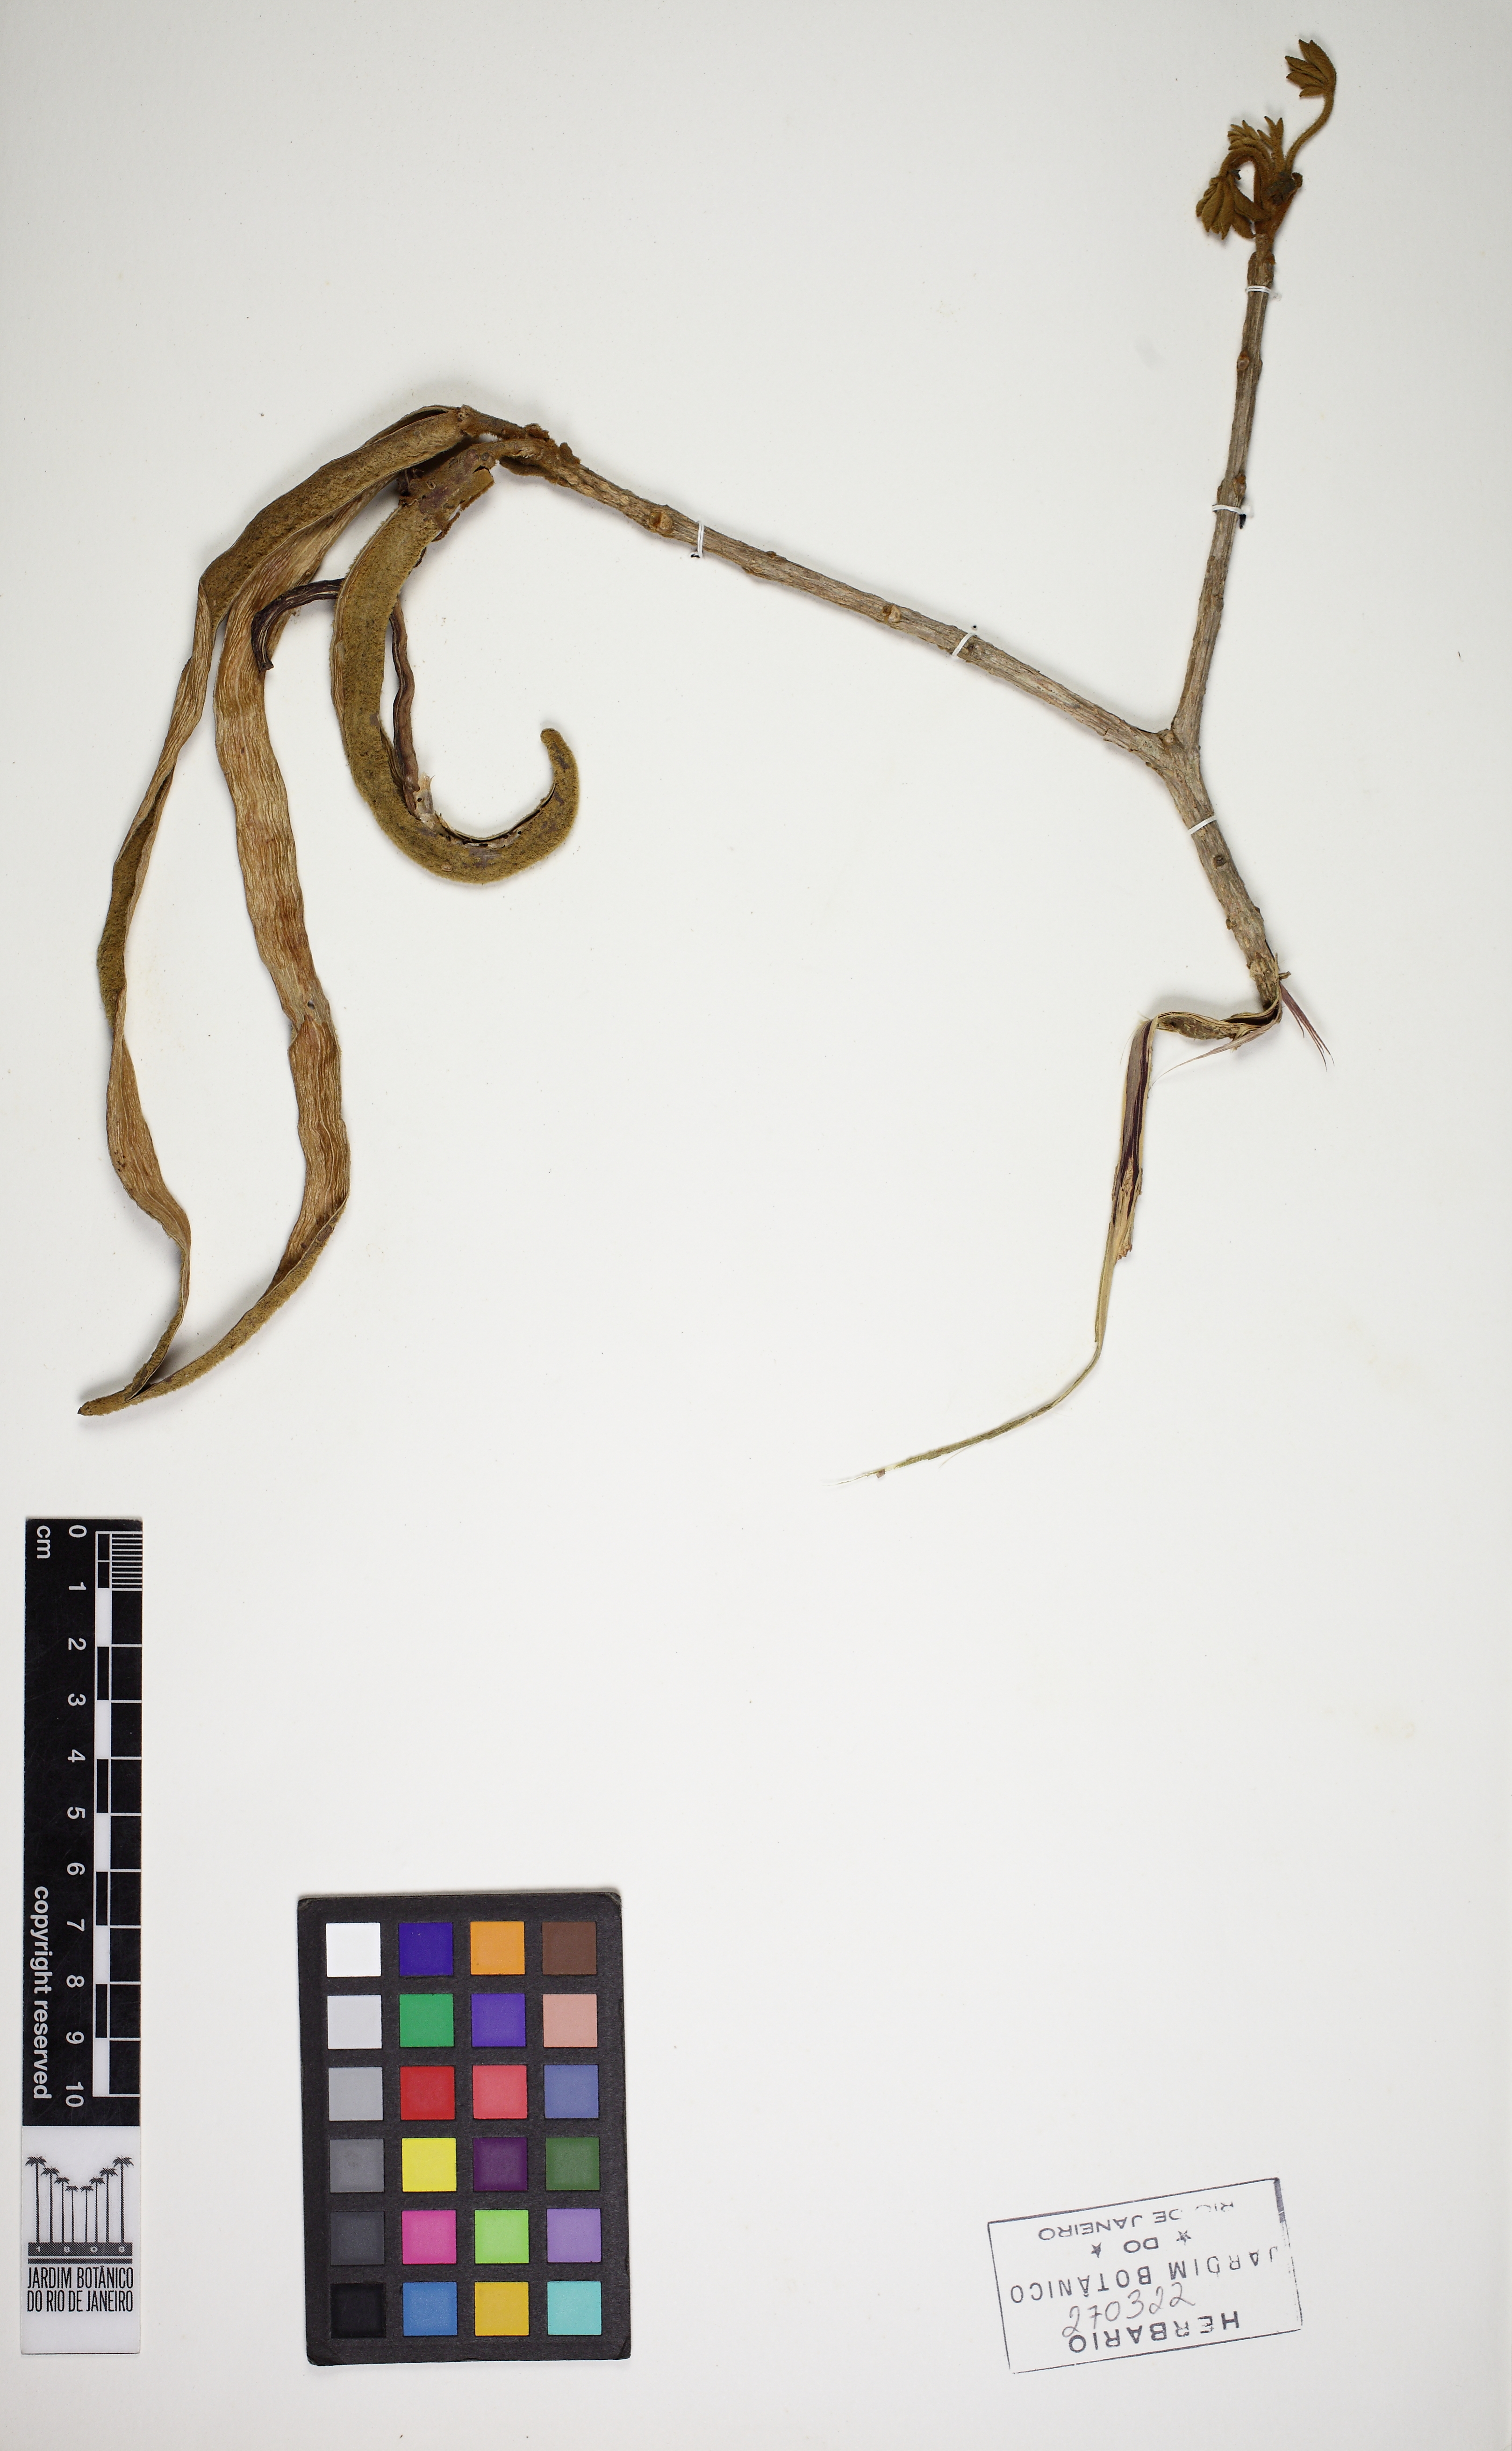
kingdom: Plantae
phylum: Tracheophyta
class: Magnoliopsida
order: Lamiales
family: Bignoniaceae
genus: Handroanthus
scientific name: Handroanthus
